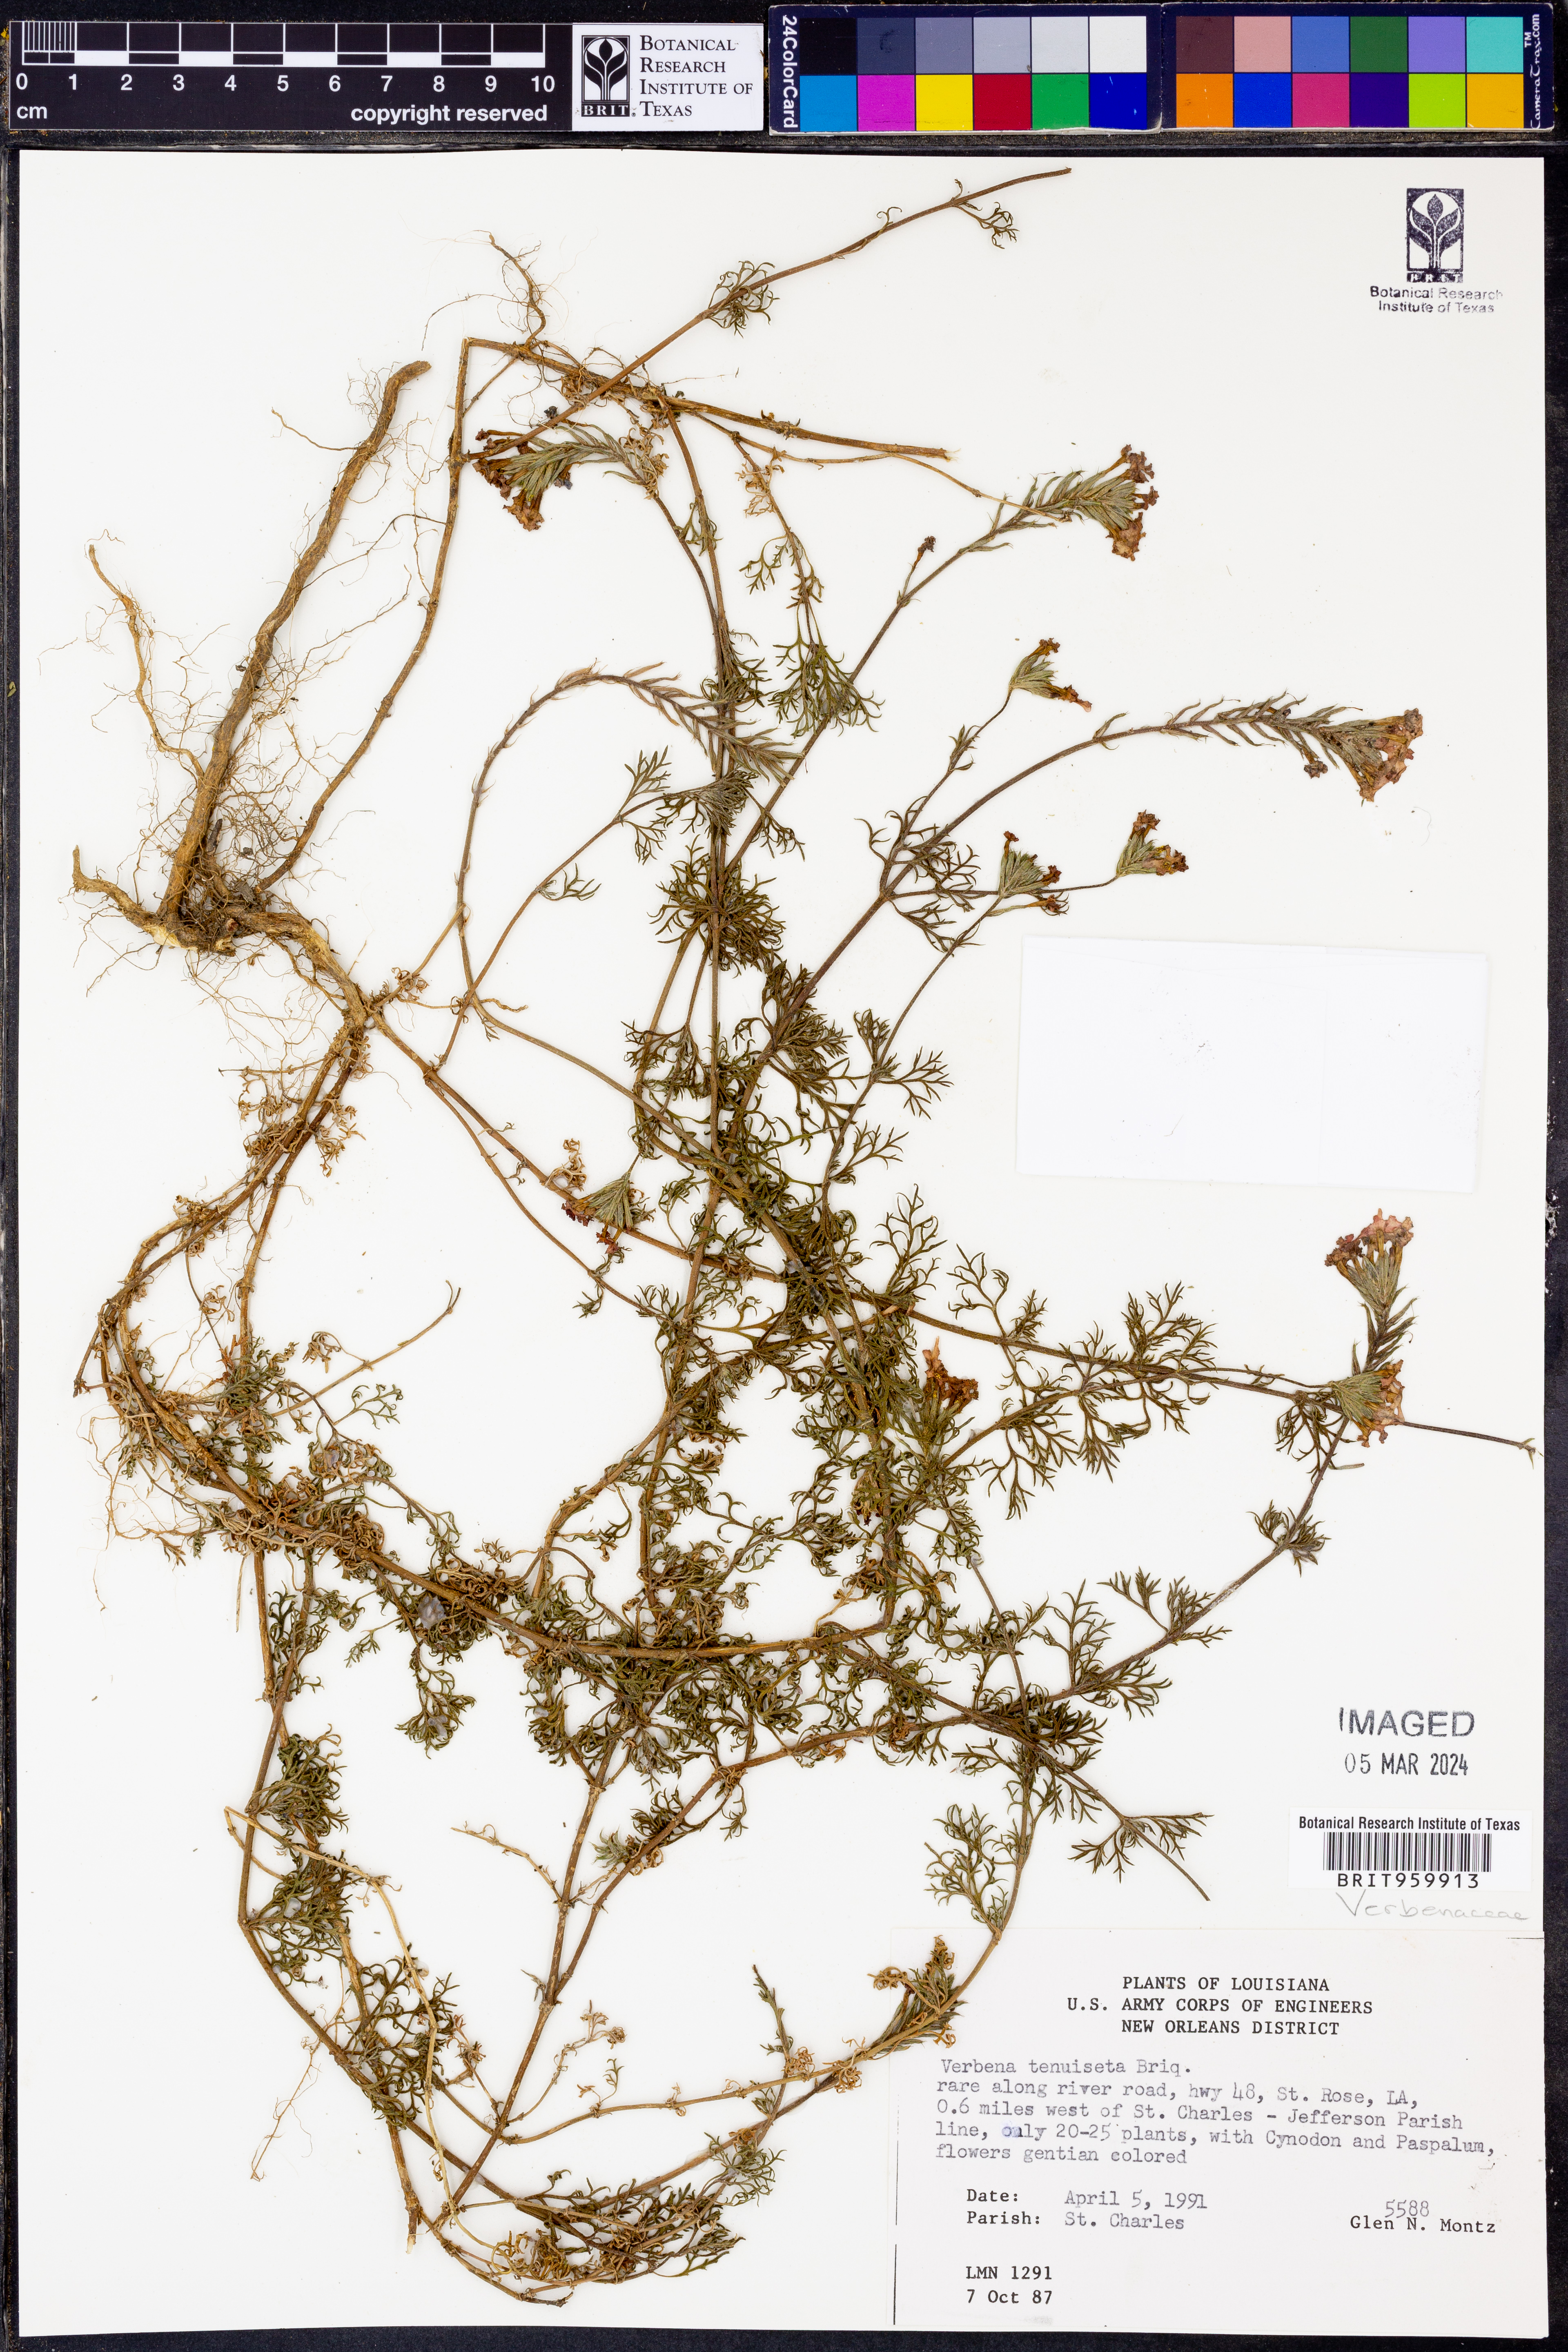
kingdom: Plantae
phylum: Tracheophyta
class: Magnoliopsida
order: Lamiales
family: Verbenaceae
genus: Verbena
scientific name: Verbena tenera
